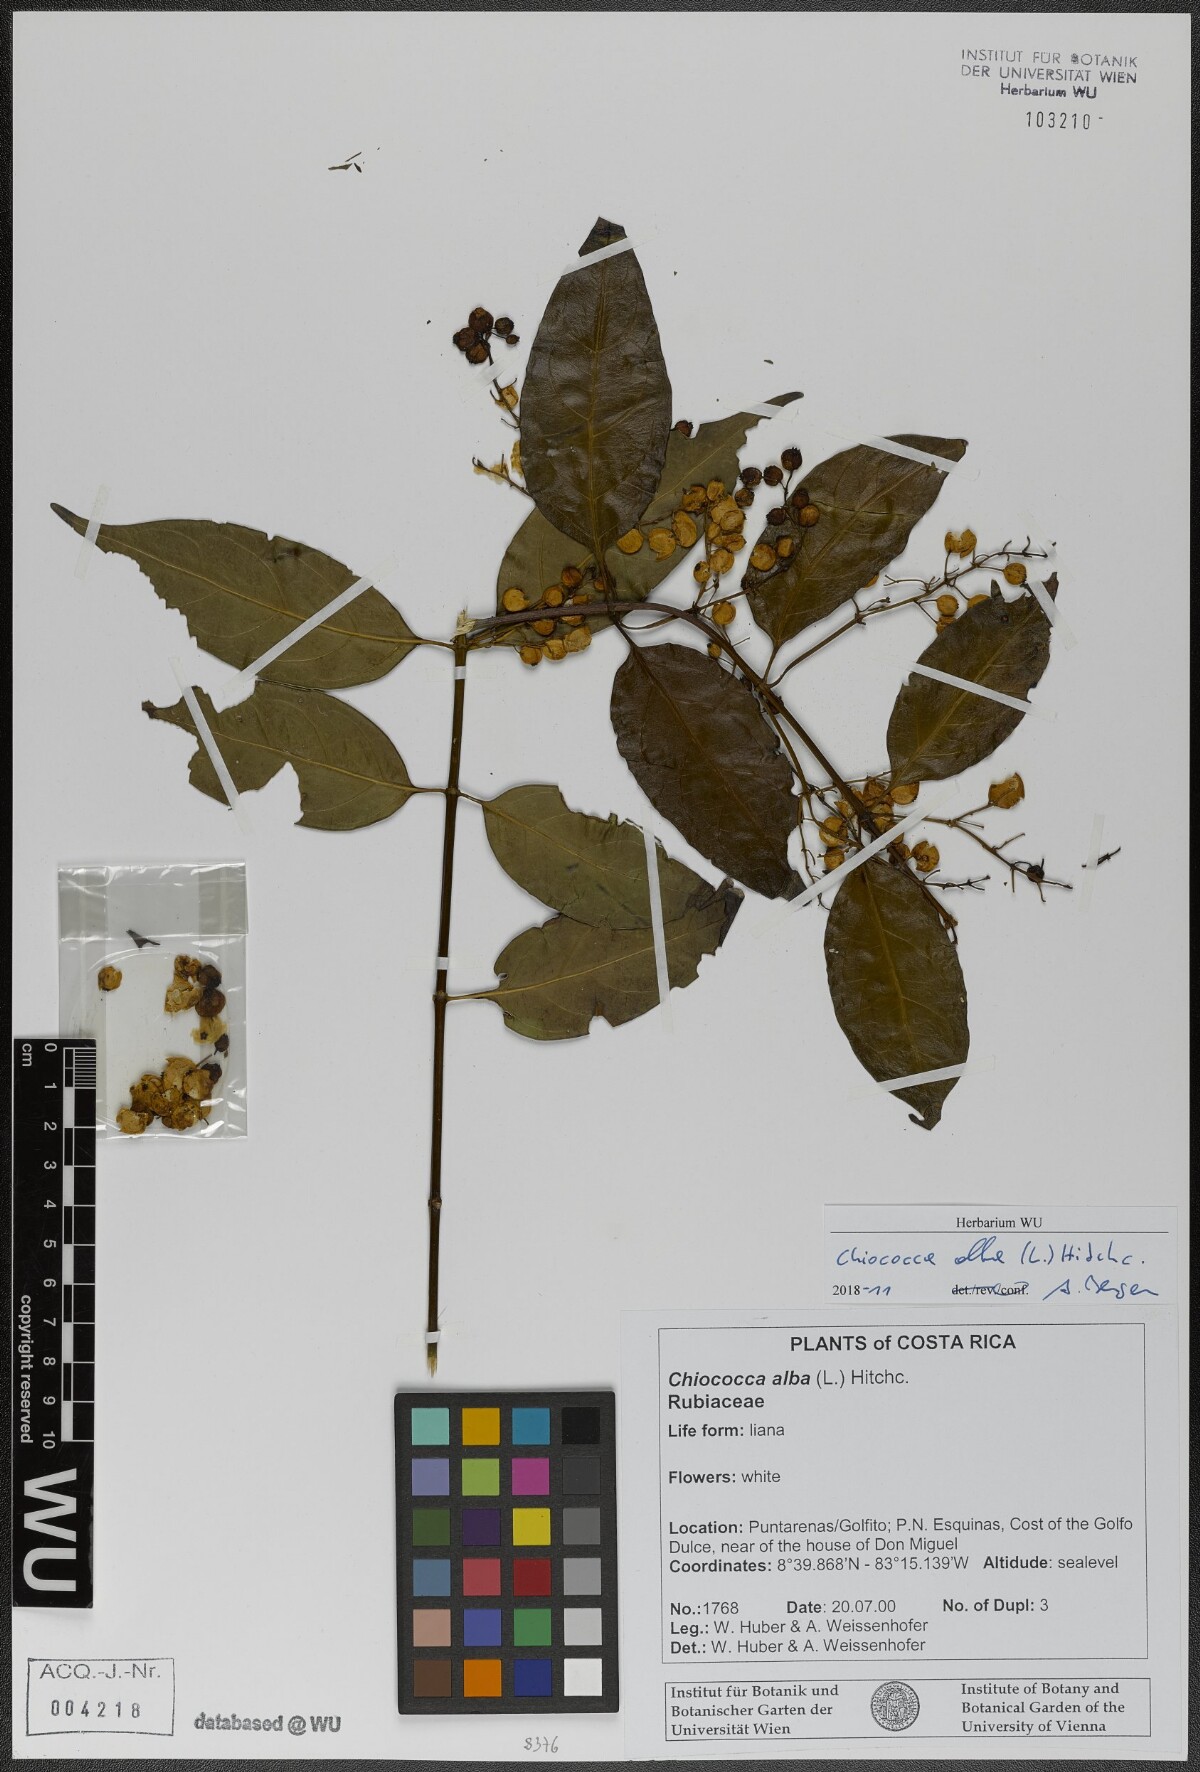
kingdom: Plantae
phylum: Tracheophyta
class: Magnoliopsida
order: Gentianales
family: Rubiaceae
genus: Chiococca
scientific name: Chiococca alba
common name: Snowberry
